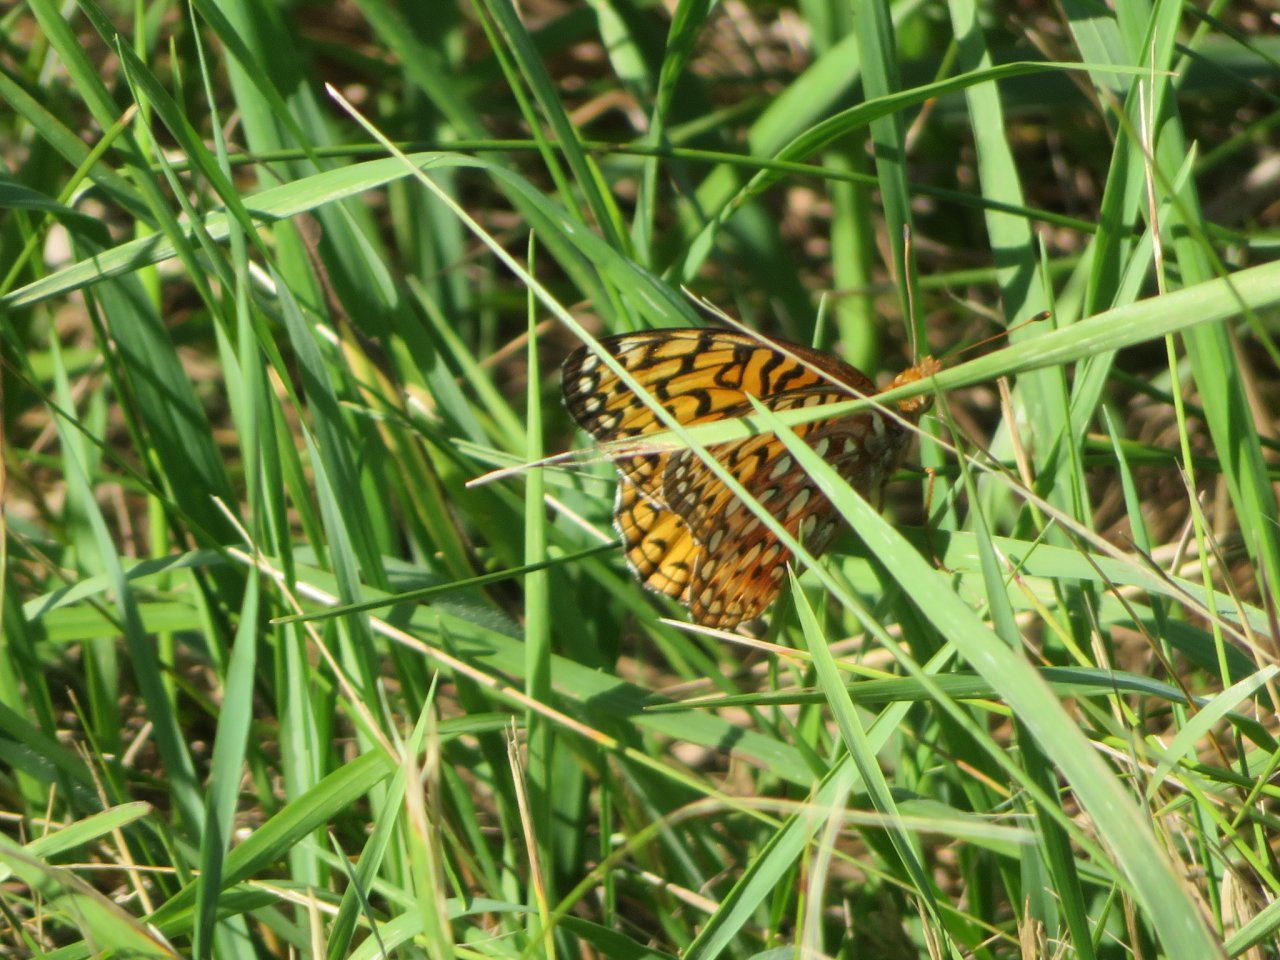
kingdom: Animalia
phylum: Arthropoda
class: Insecta
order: Lepidoptera
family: Nymphalidae
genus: Speyeria
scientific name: Speyeria cybele
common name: Great Spangled Fritillary
